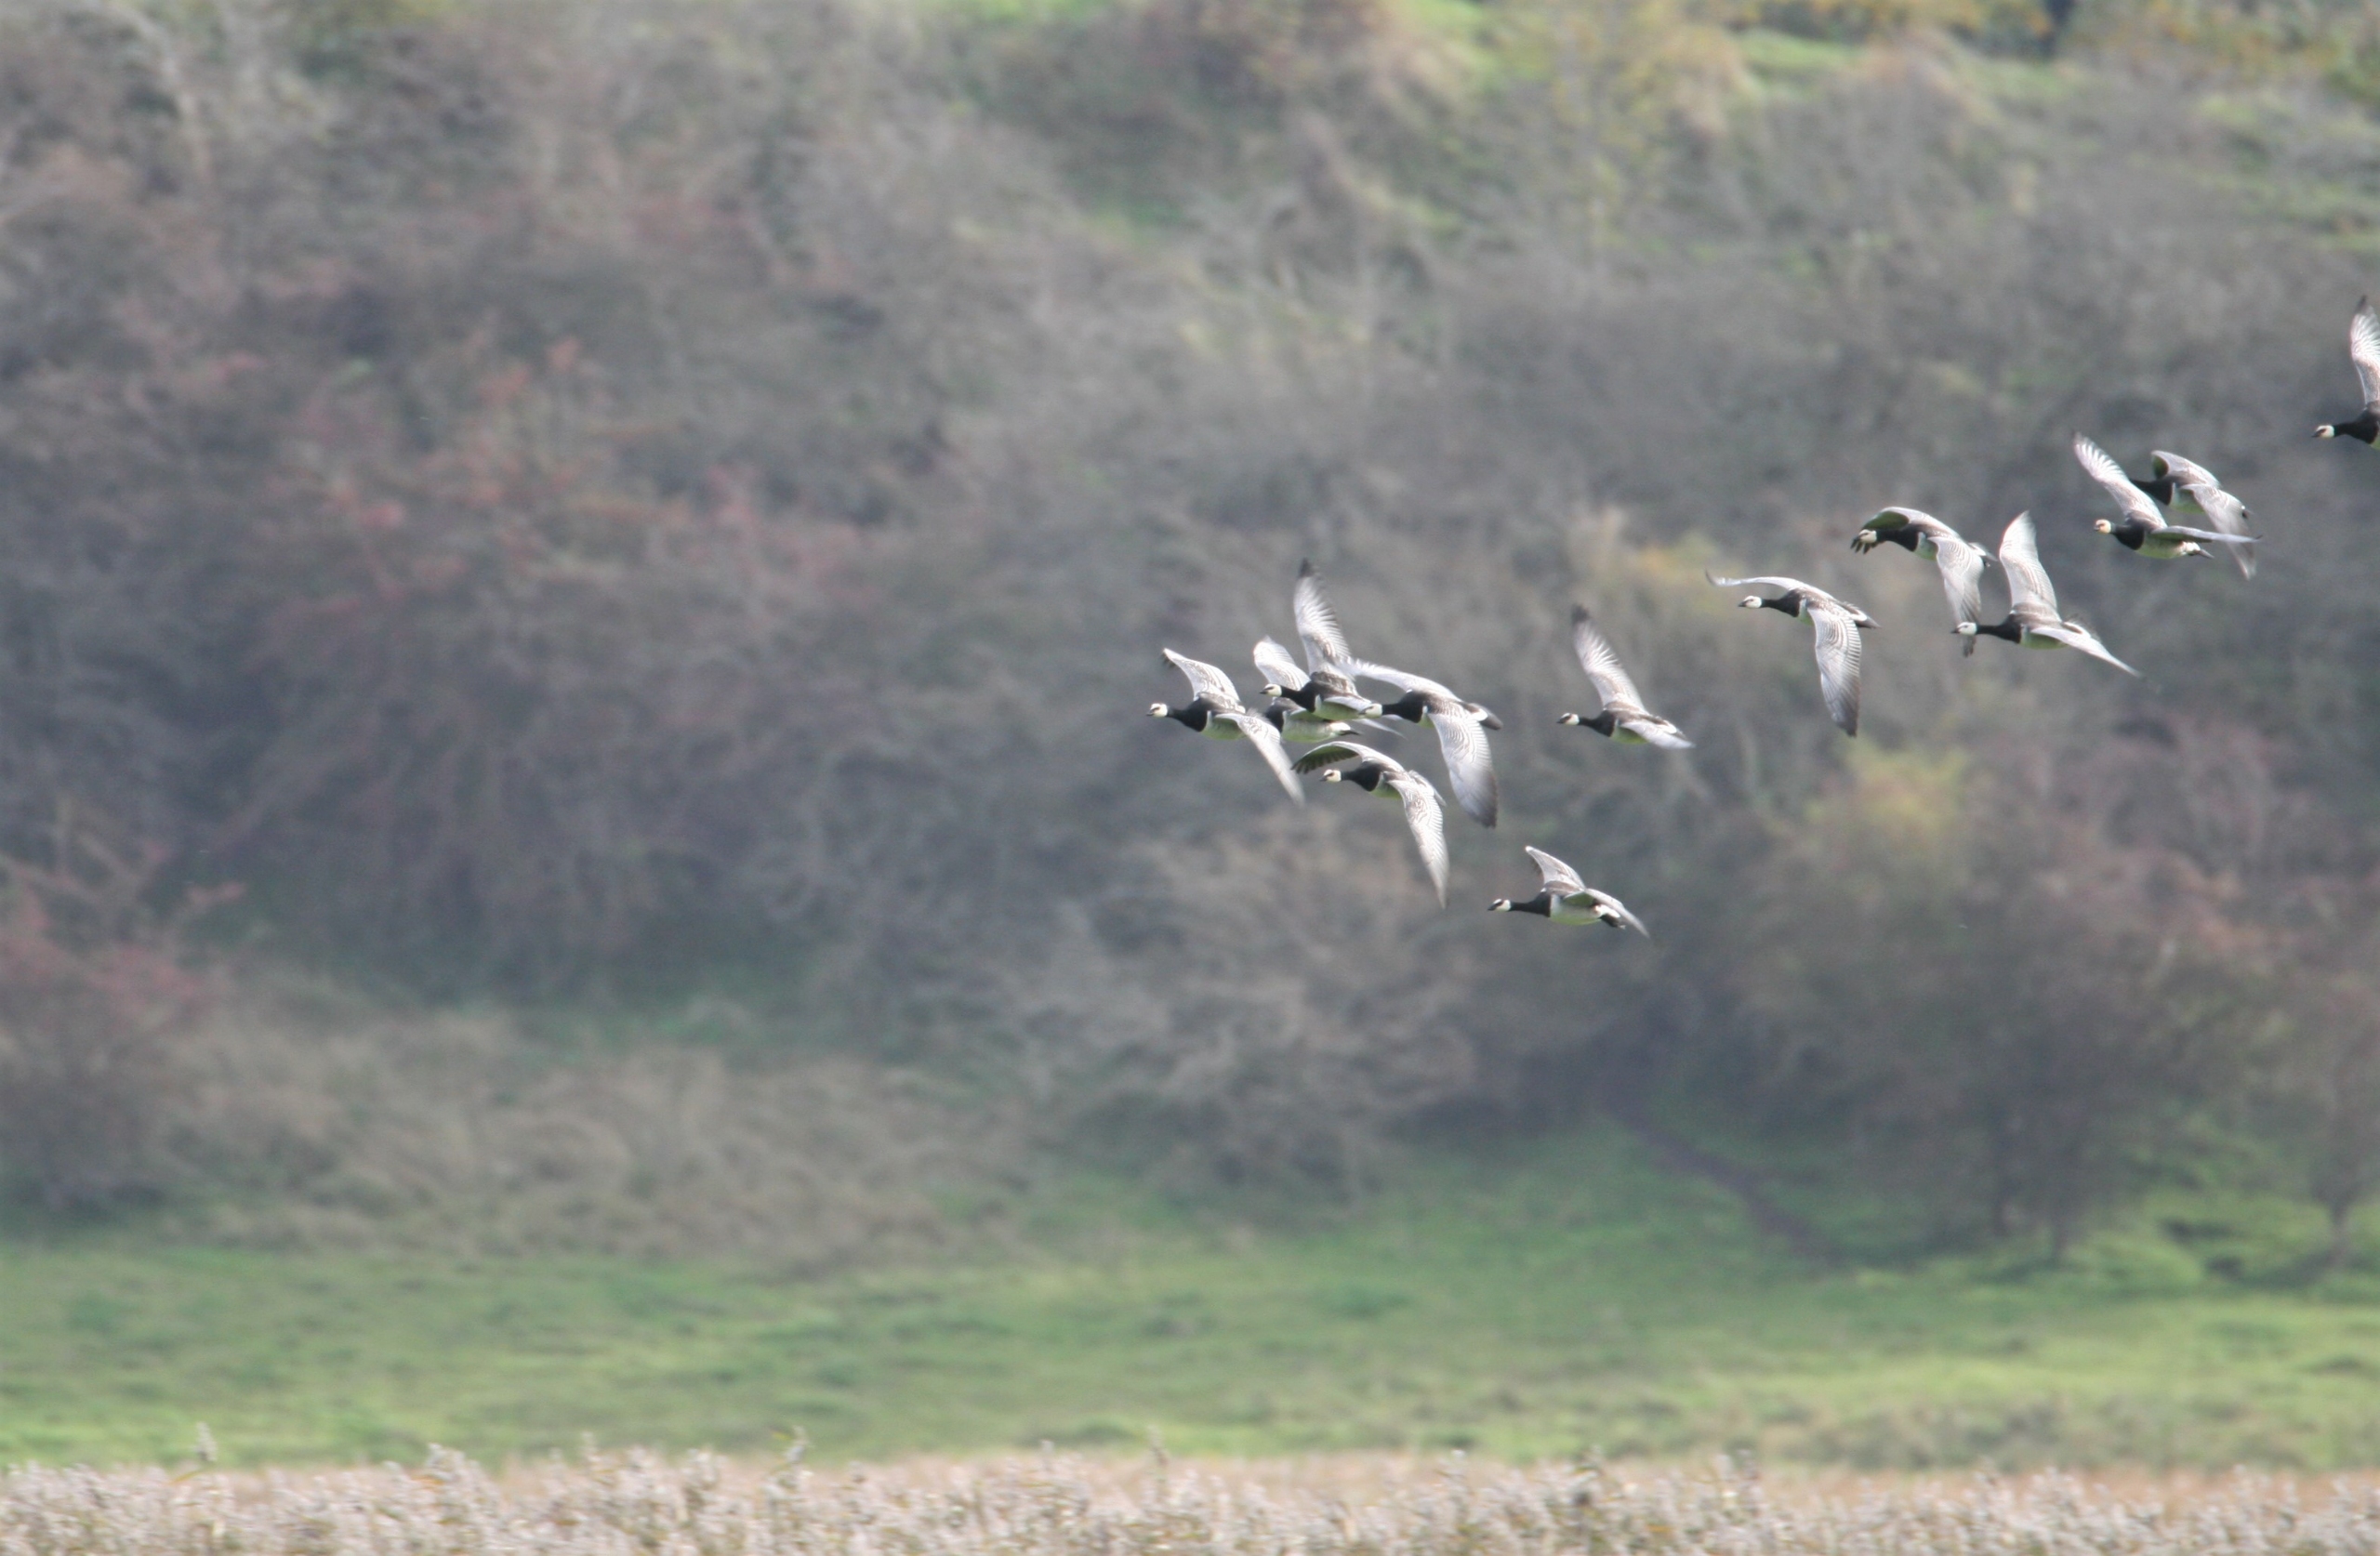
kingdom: Animalia
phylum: Chordata
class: Aves
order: Anseriformes
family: Anatidae
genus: Branta
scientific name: Branta leucopsis
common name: Bramgås
